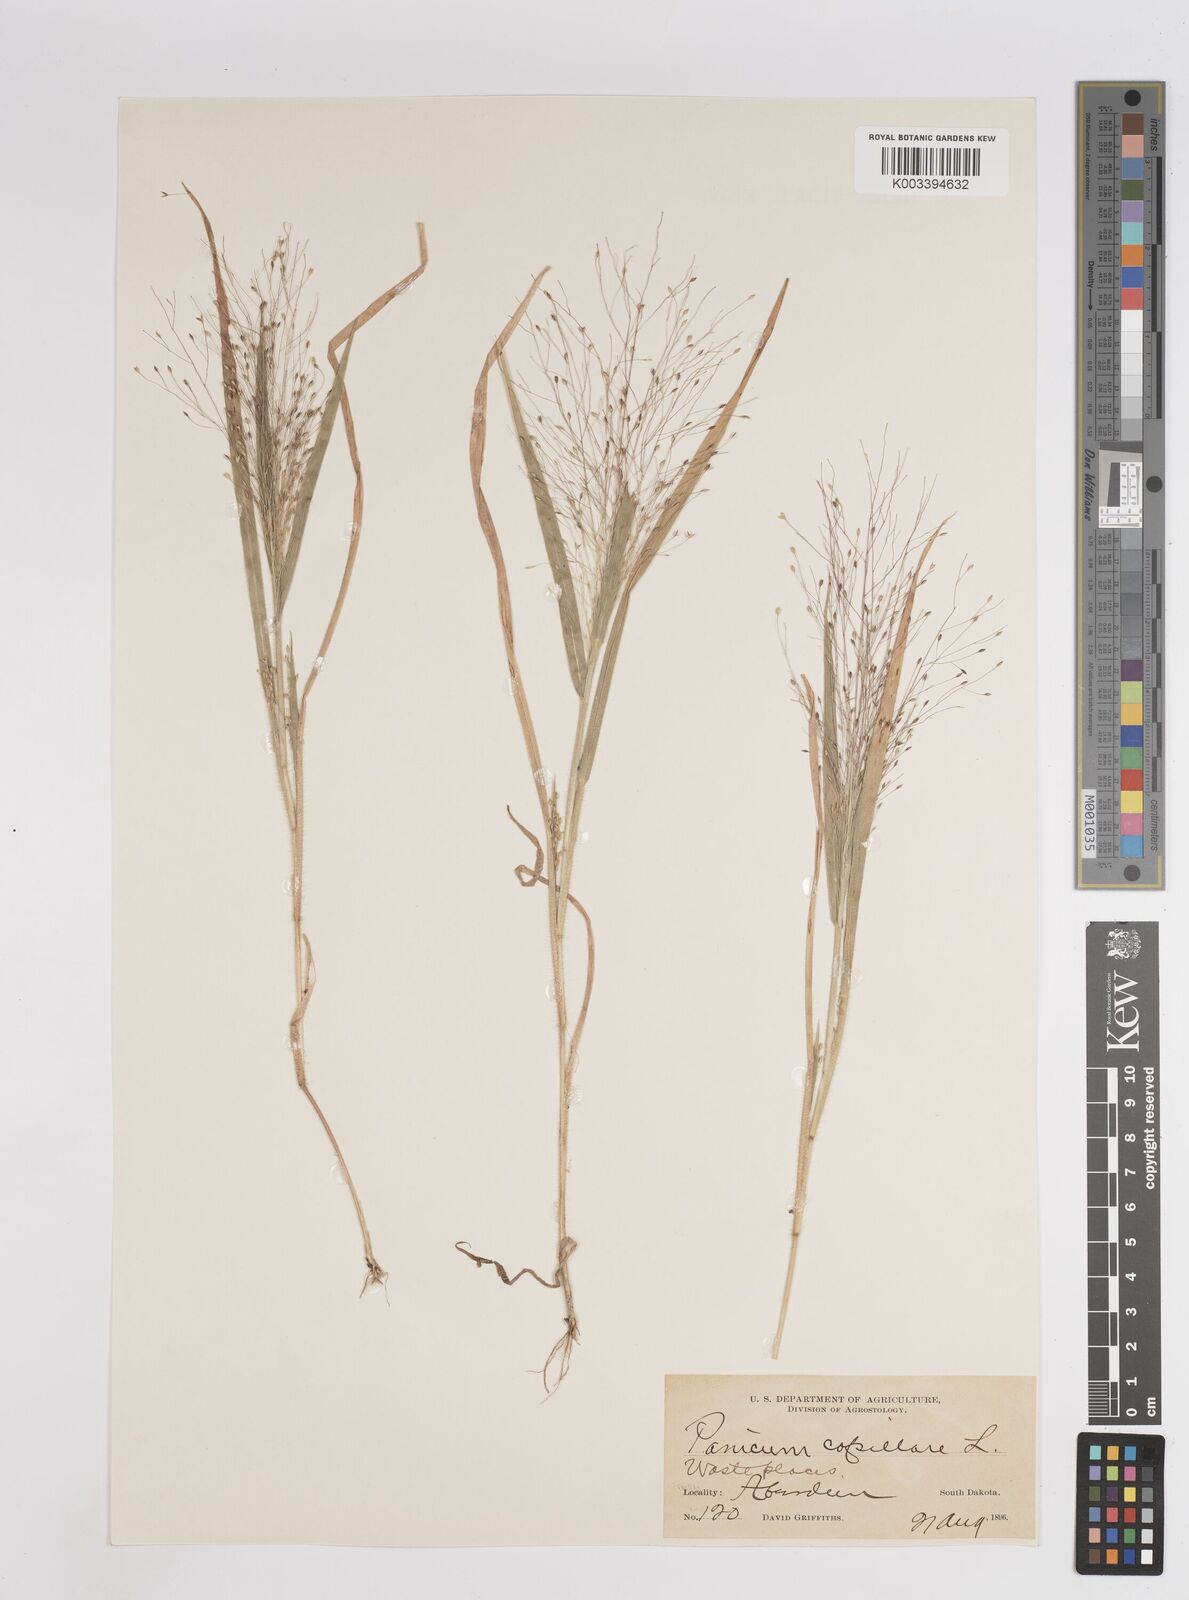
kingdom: Plantae
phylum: Tracheophyta
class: Liliopsida
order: Poales
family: Poaceae
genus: Panicum
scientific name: Panicum capillare
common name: Witch-grass
